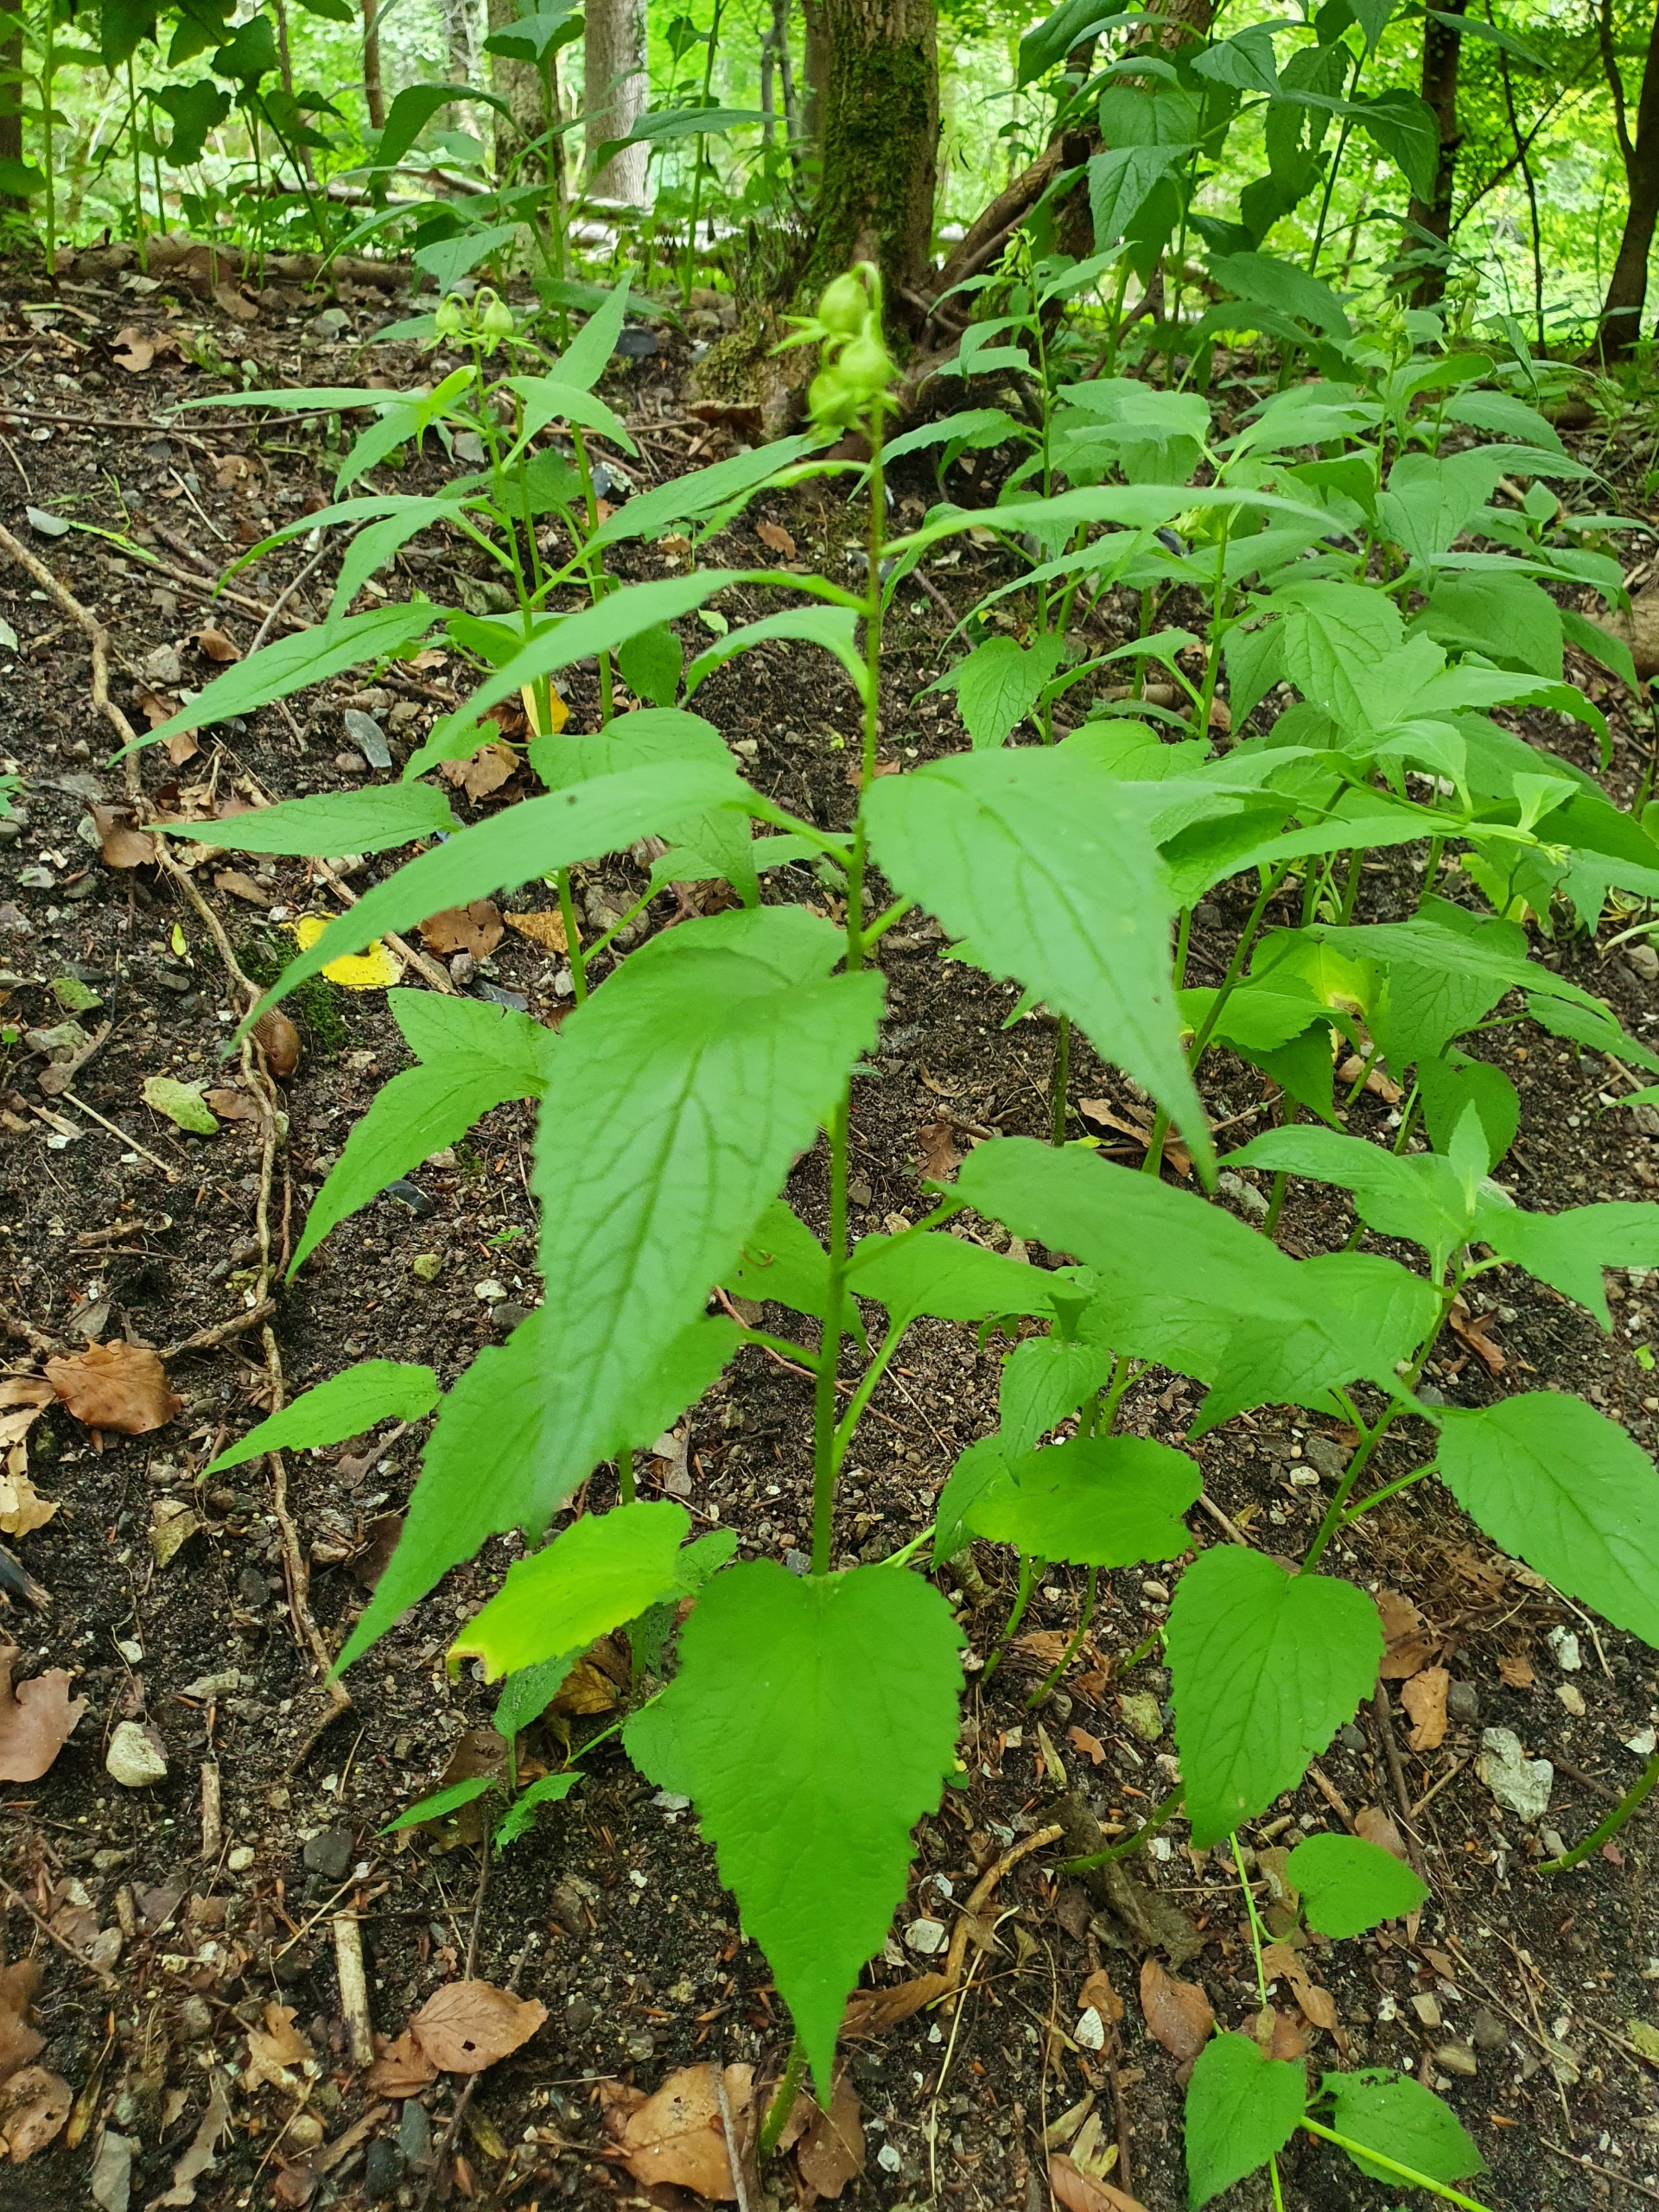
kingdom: Plantae
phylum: Tracheophyta
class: Magnoliopsida
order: Asterales
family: Campanulaceae
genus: Campanula
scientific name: Campanula latifolia
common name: Bredbladet klokke
